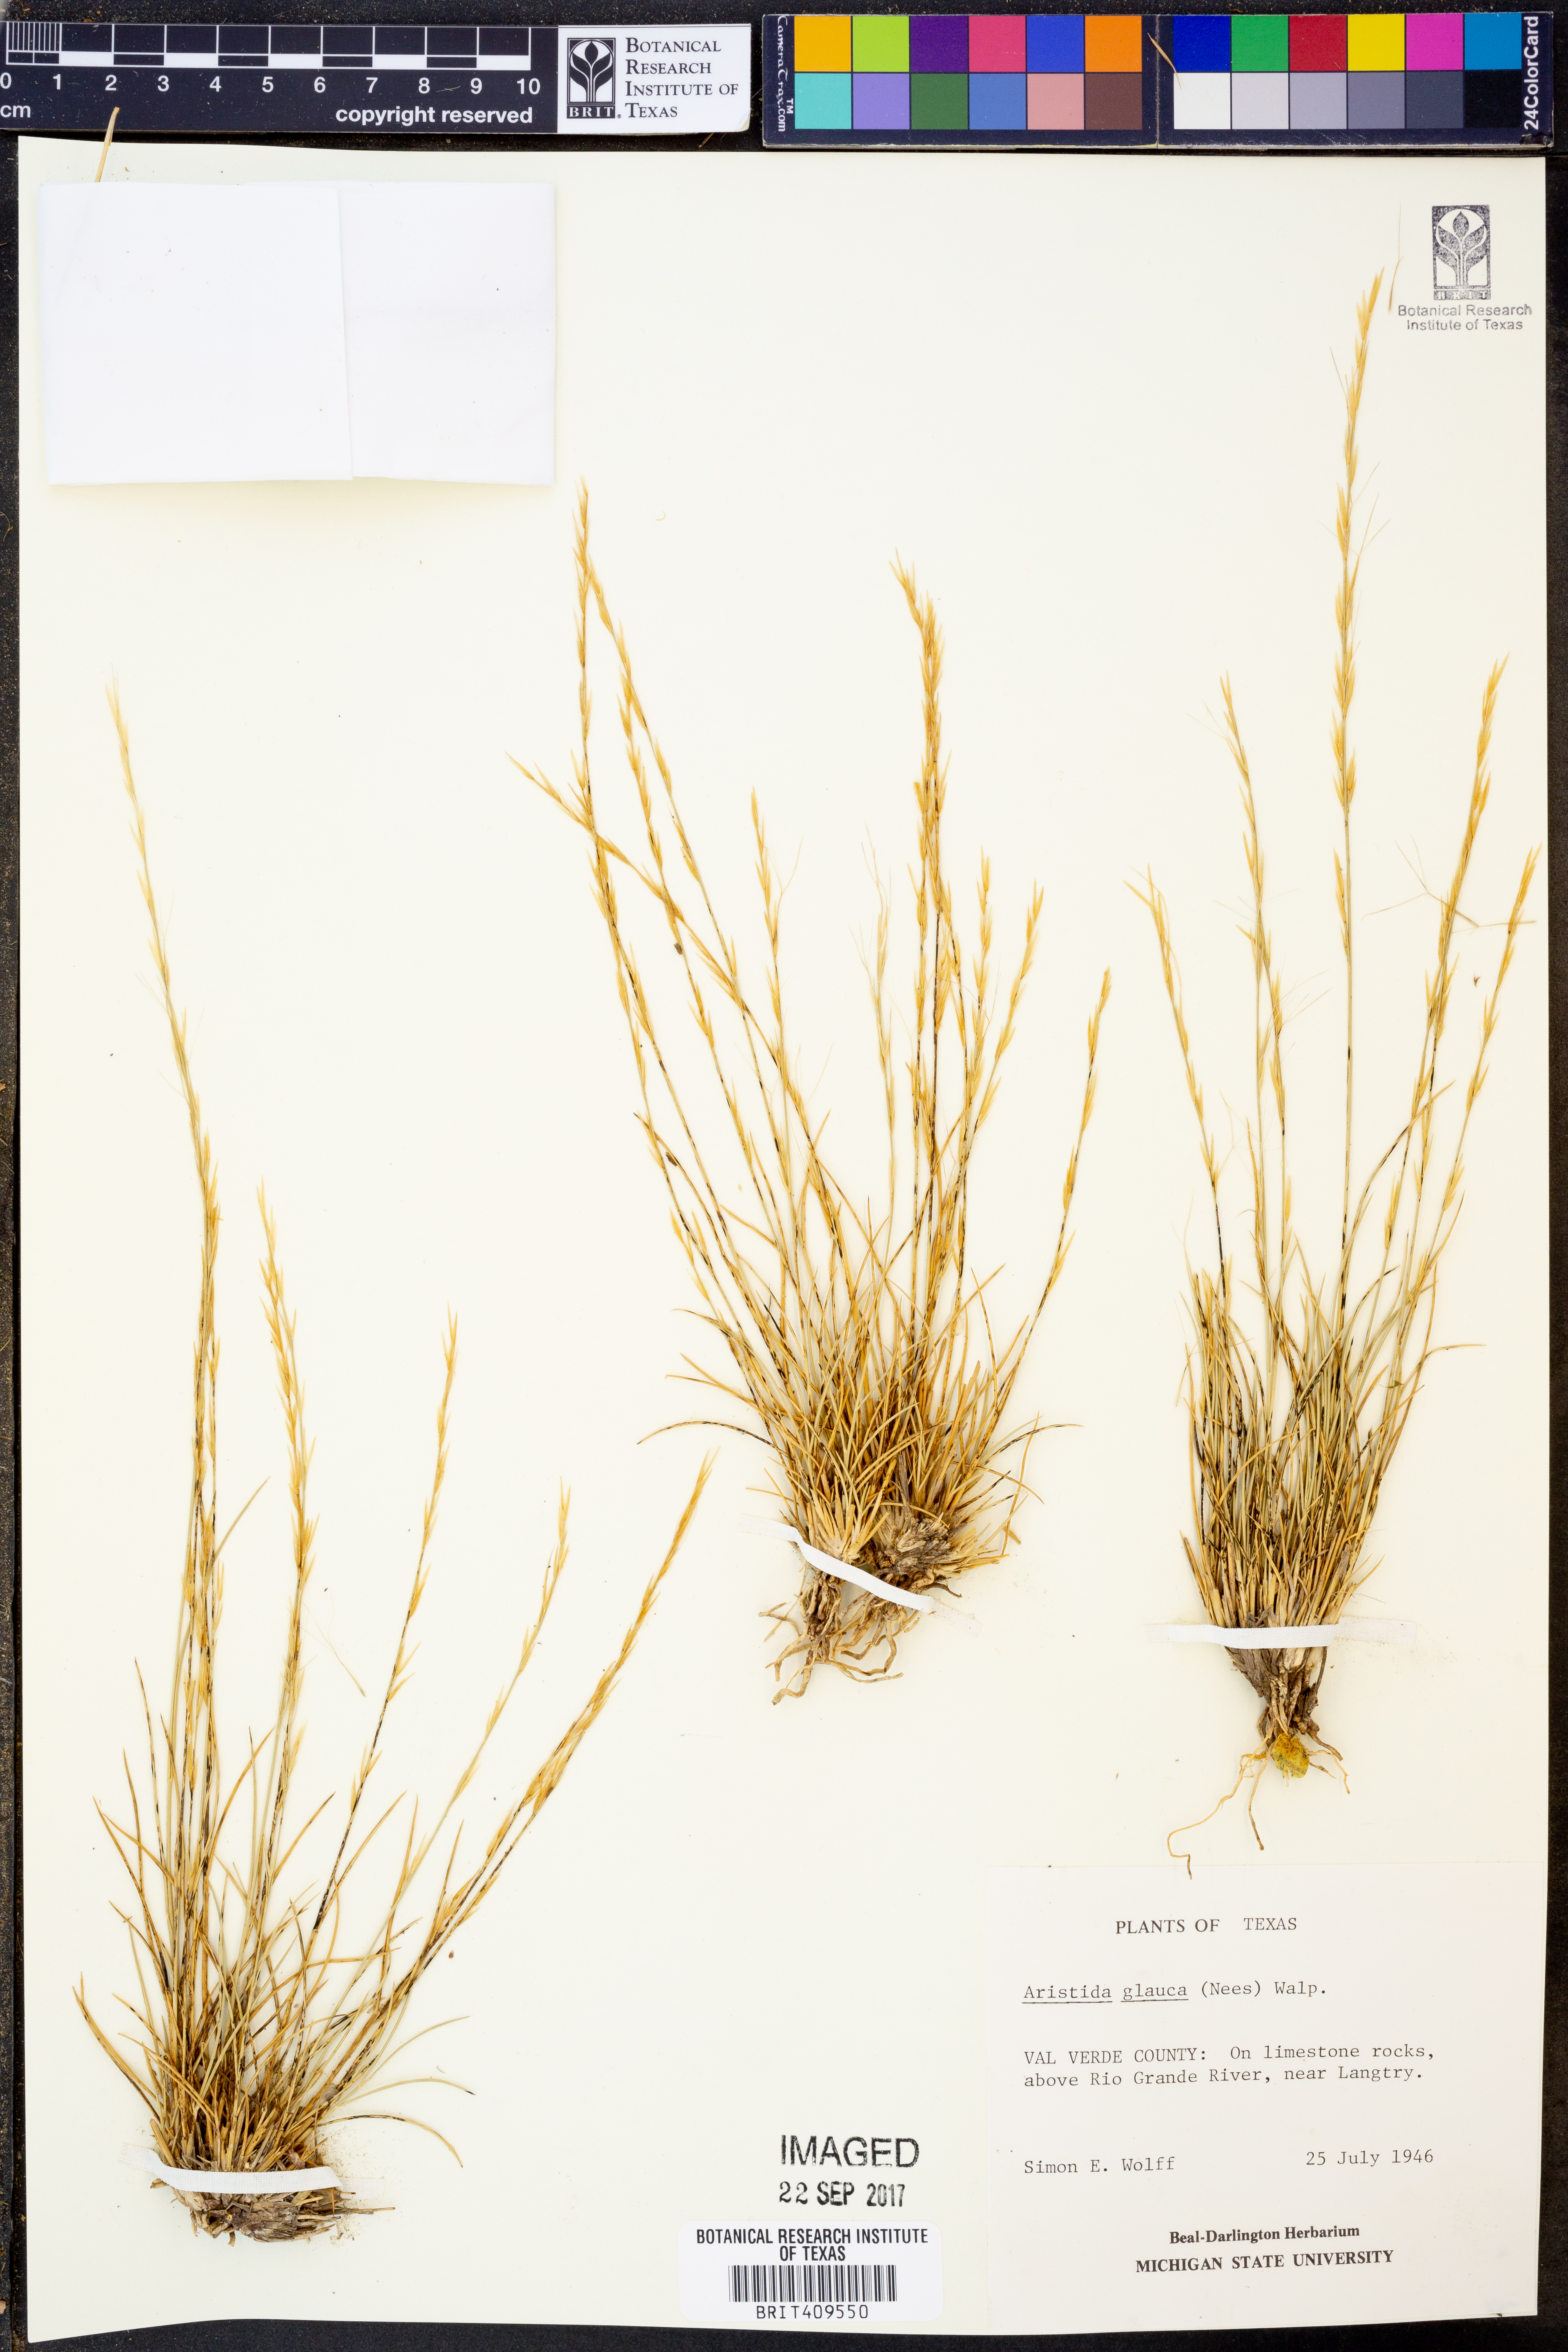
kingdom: Plantae
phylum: Tracheophyta
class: Liliopsida
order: Poales
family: Poaceae
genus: Aristida
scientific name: Aristida glauca
